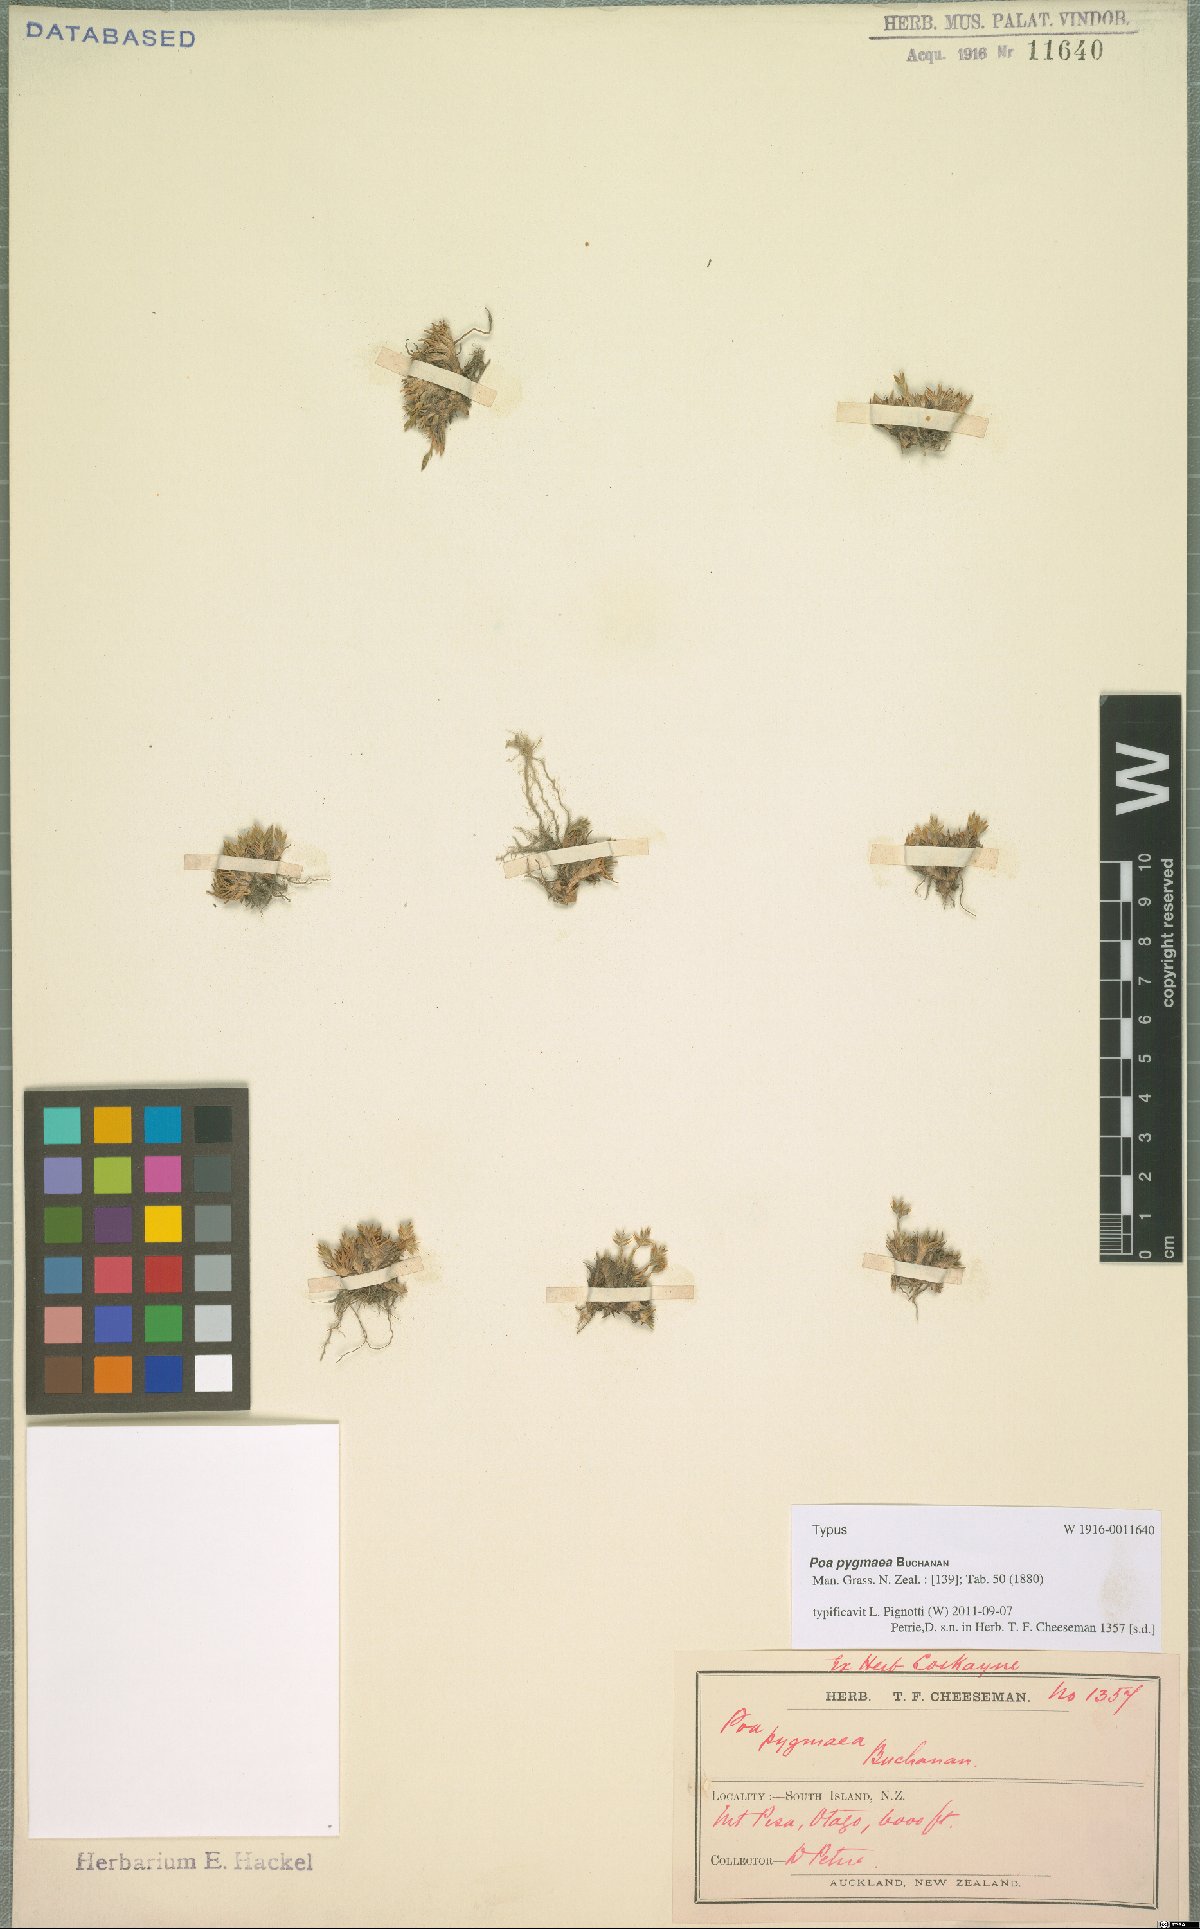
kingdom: Plantae
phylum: Tracheophyta
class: Liliopsida
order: Poales
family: Poaceae
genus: Poa
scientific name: Poa pygmaea
